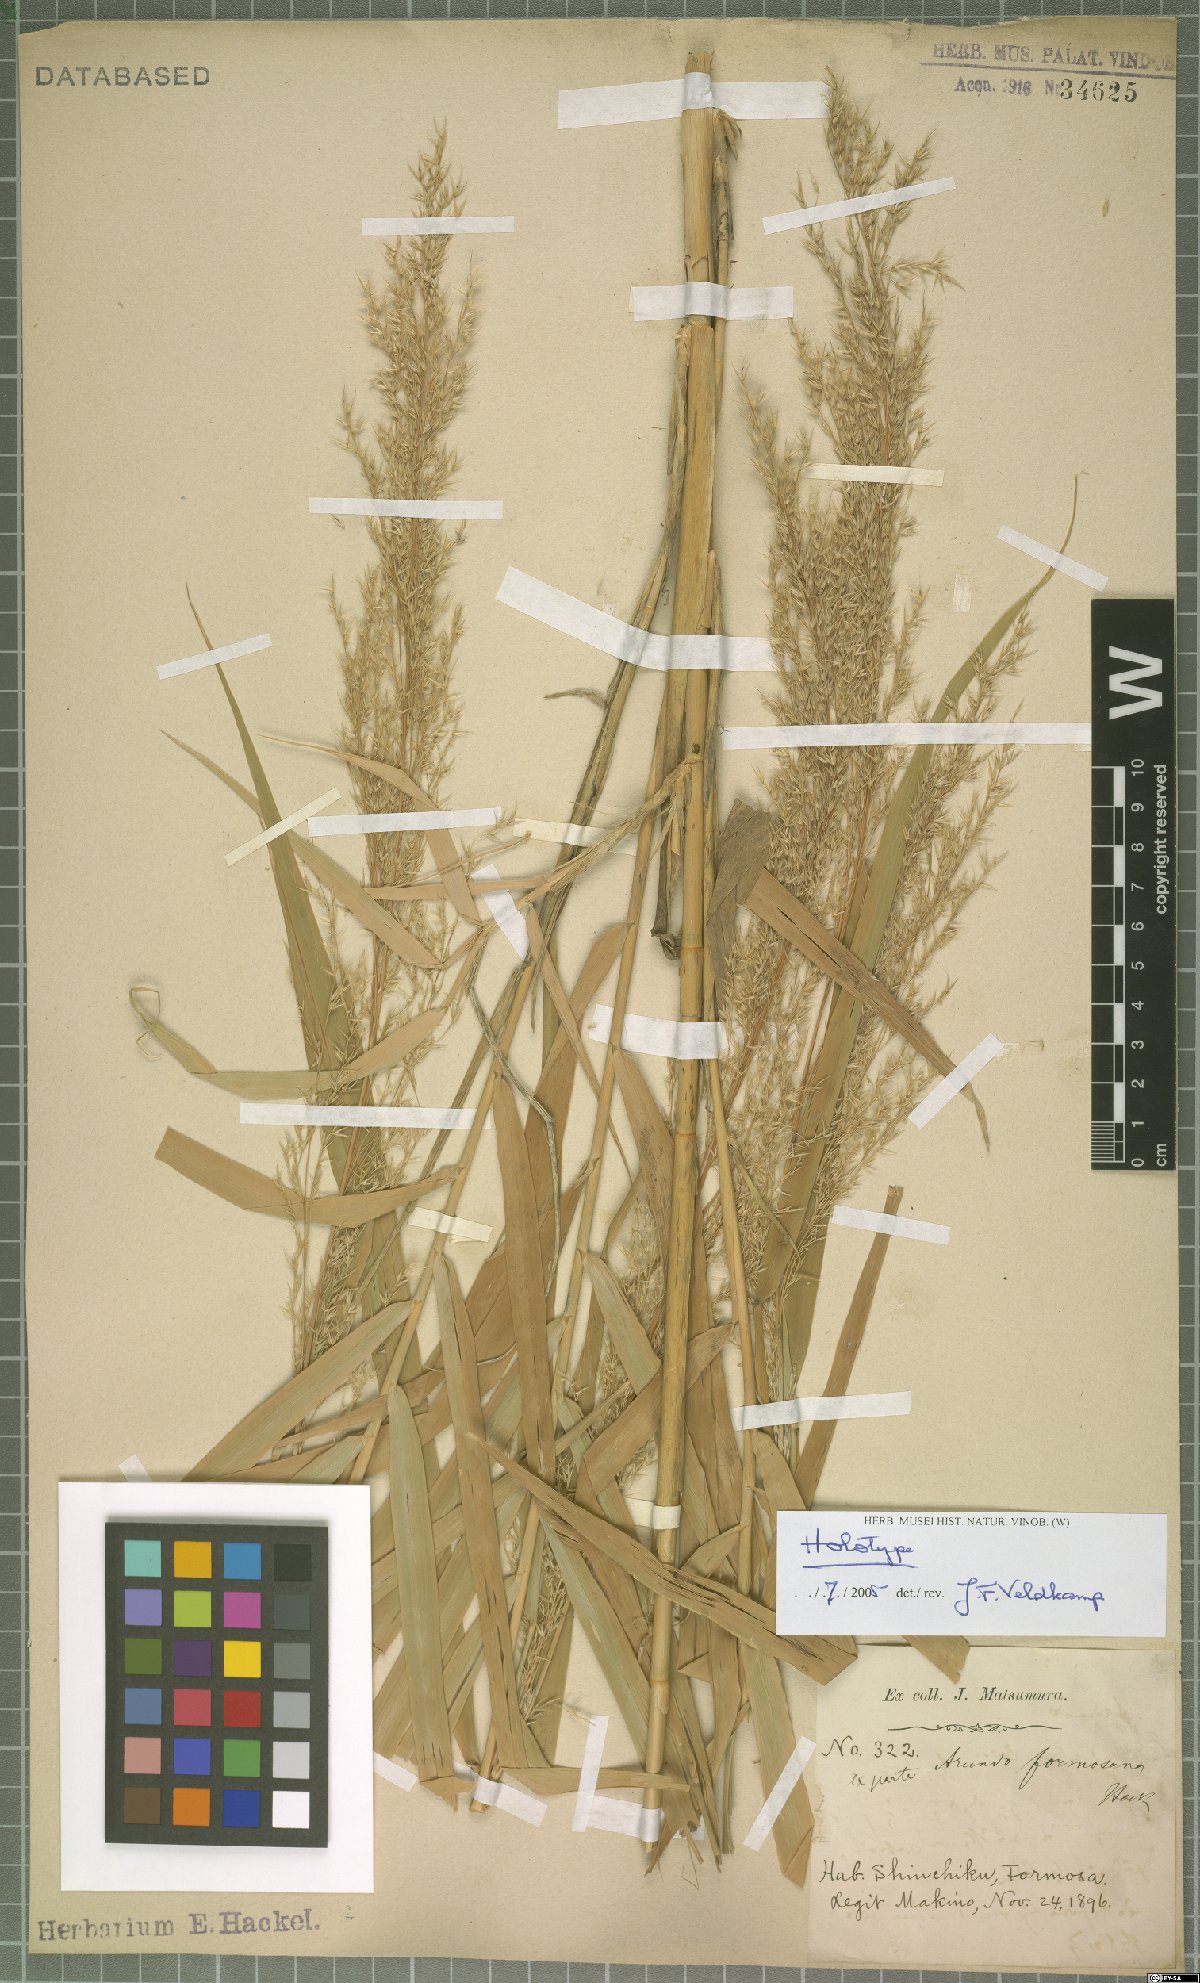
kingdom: Plantae
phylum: Tracheophyta
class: Liliopsida
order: Poales
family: Poaceae
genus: Arundo
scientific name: Arundo formosana
